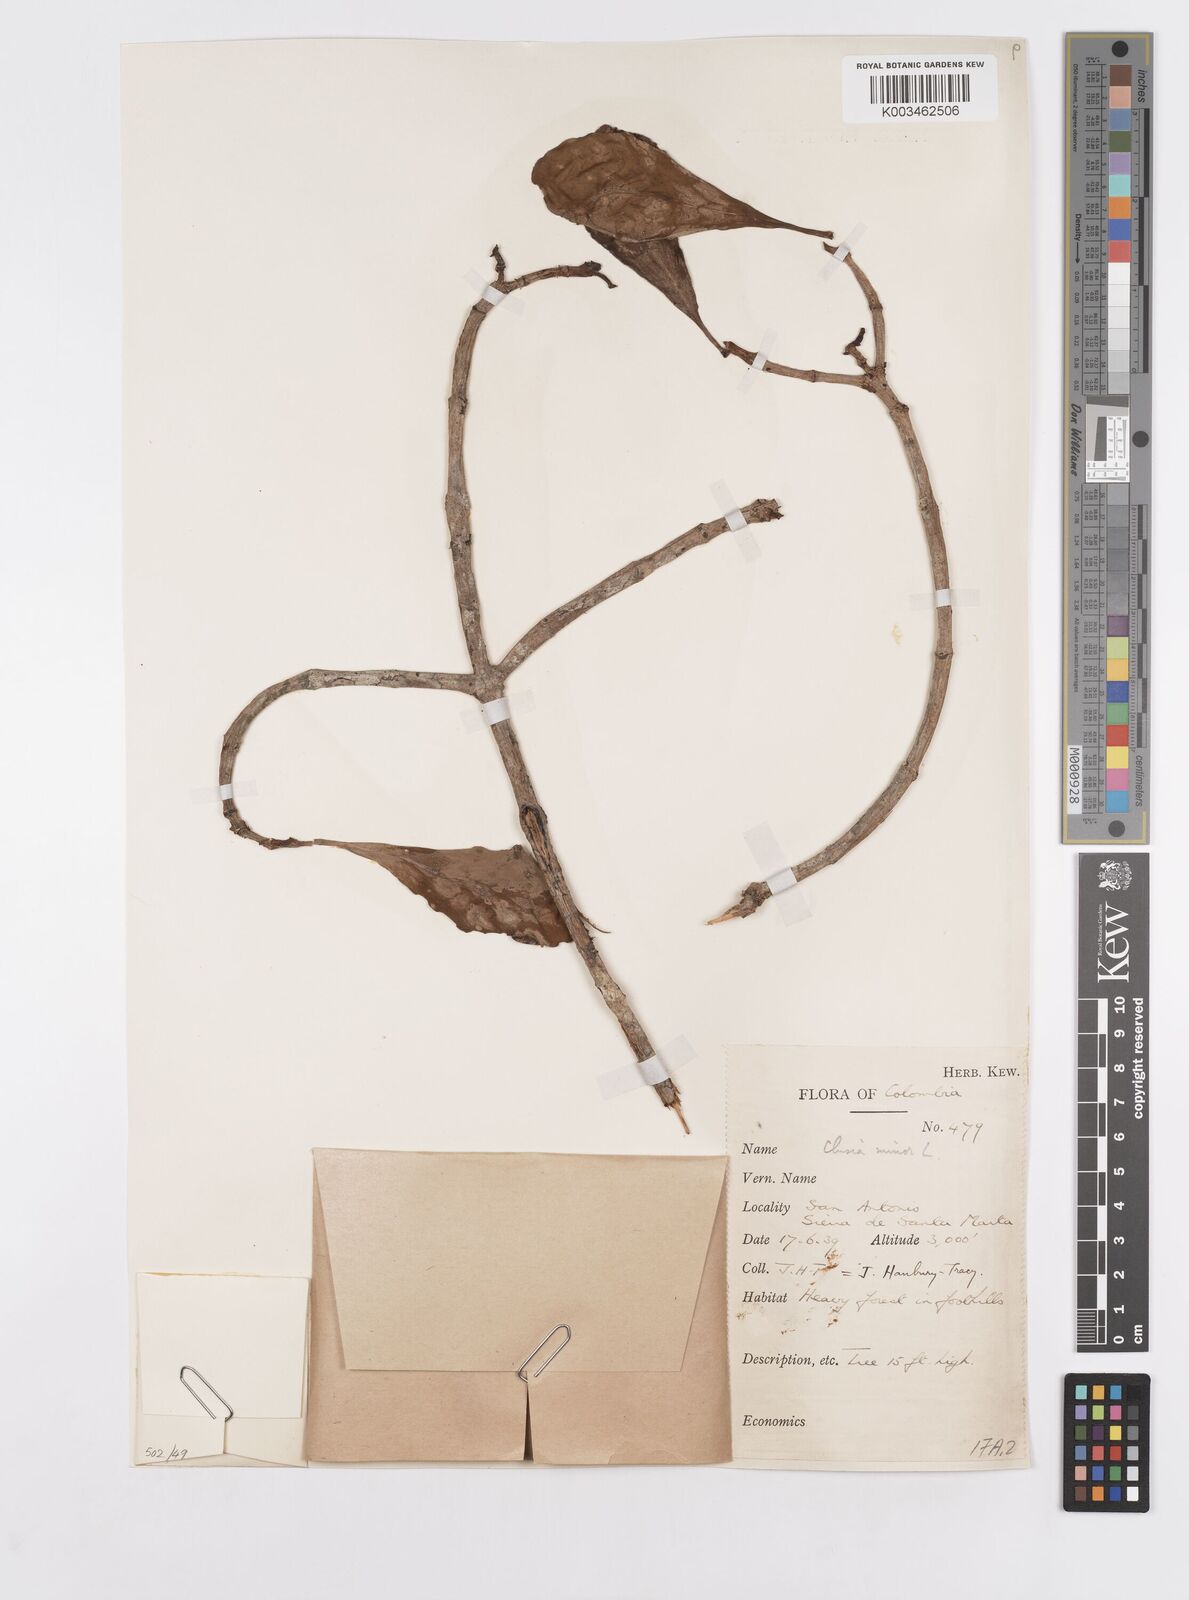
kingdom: Plantae
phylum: Tracheophyta
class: Magnoliopsida
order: Malpighiales
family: Clusiaceae
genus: Clusia
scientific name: Clusia minor
